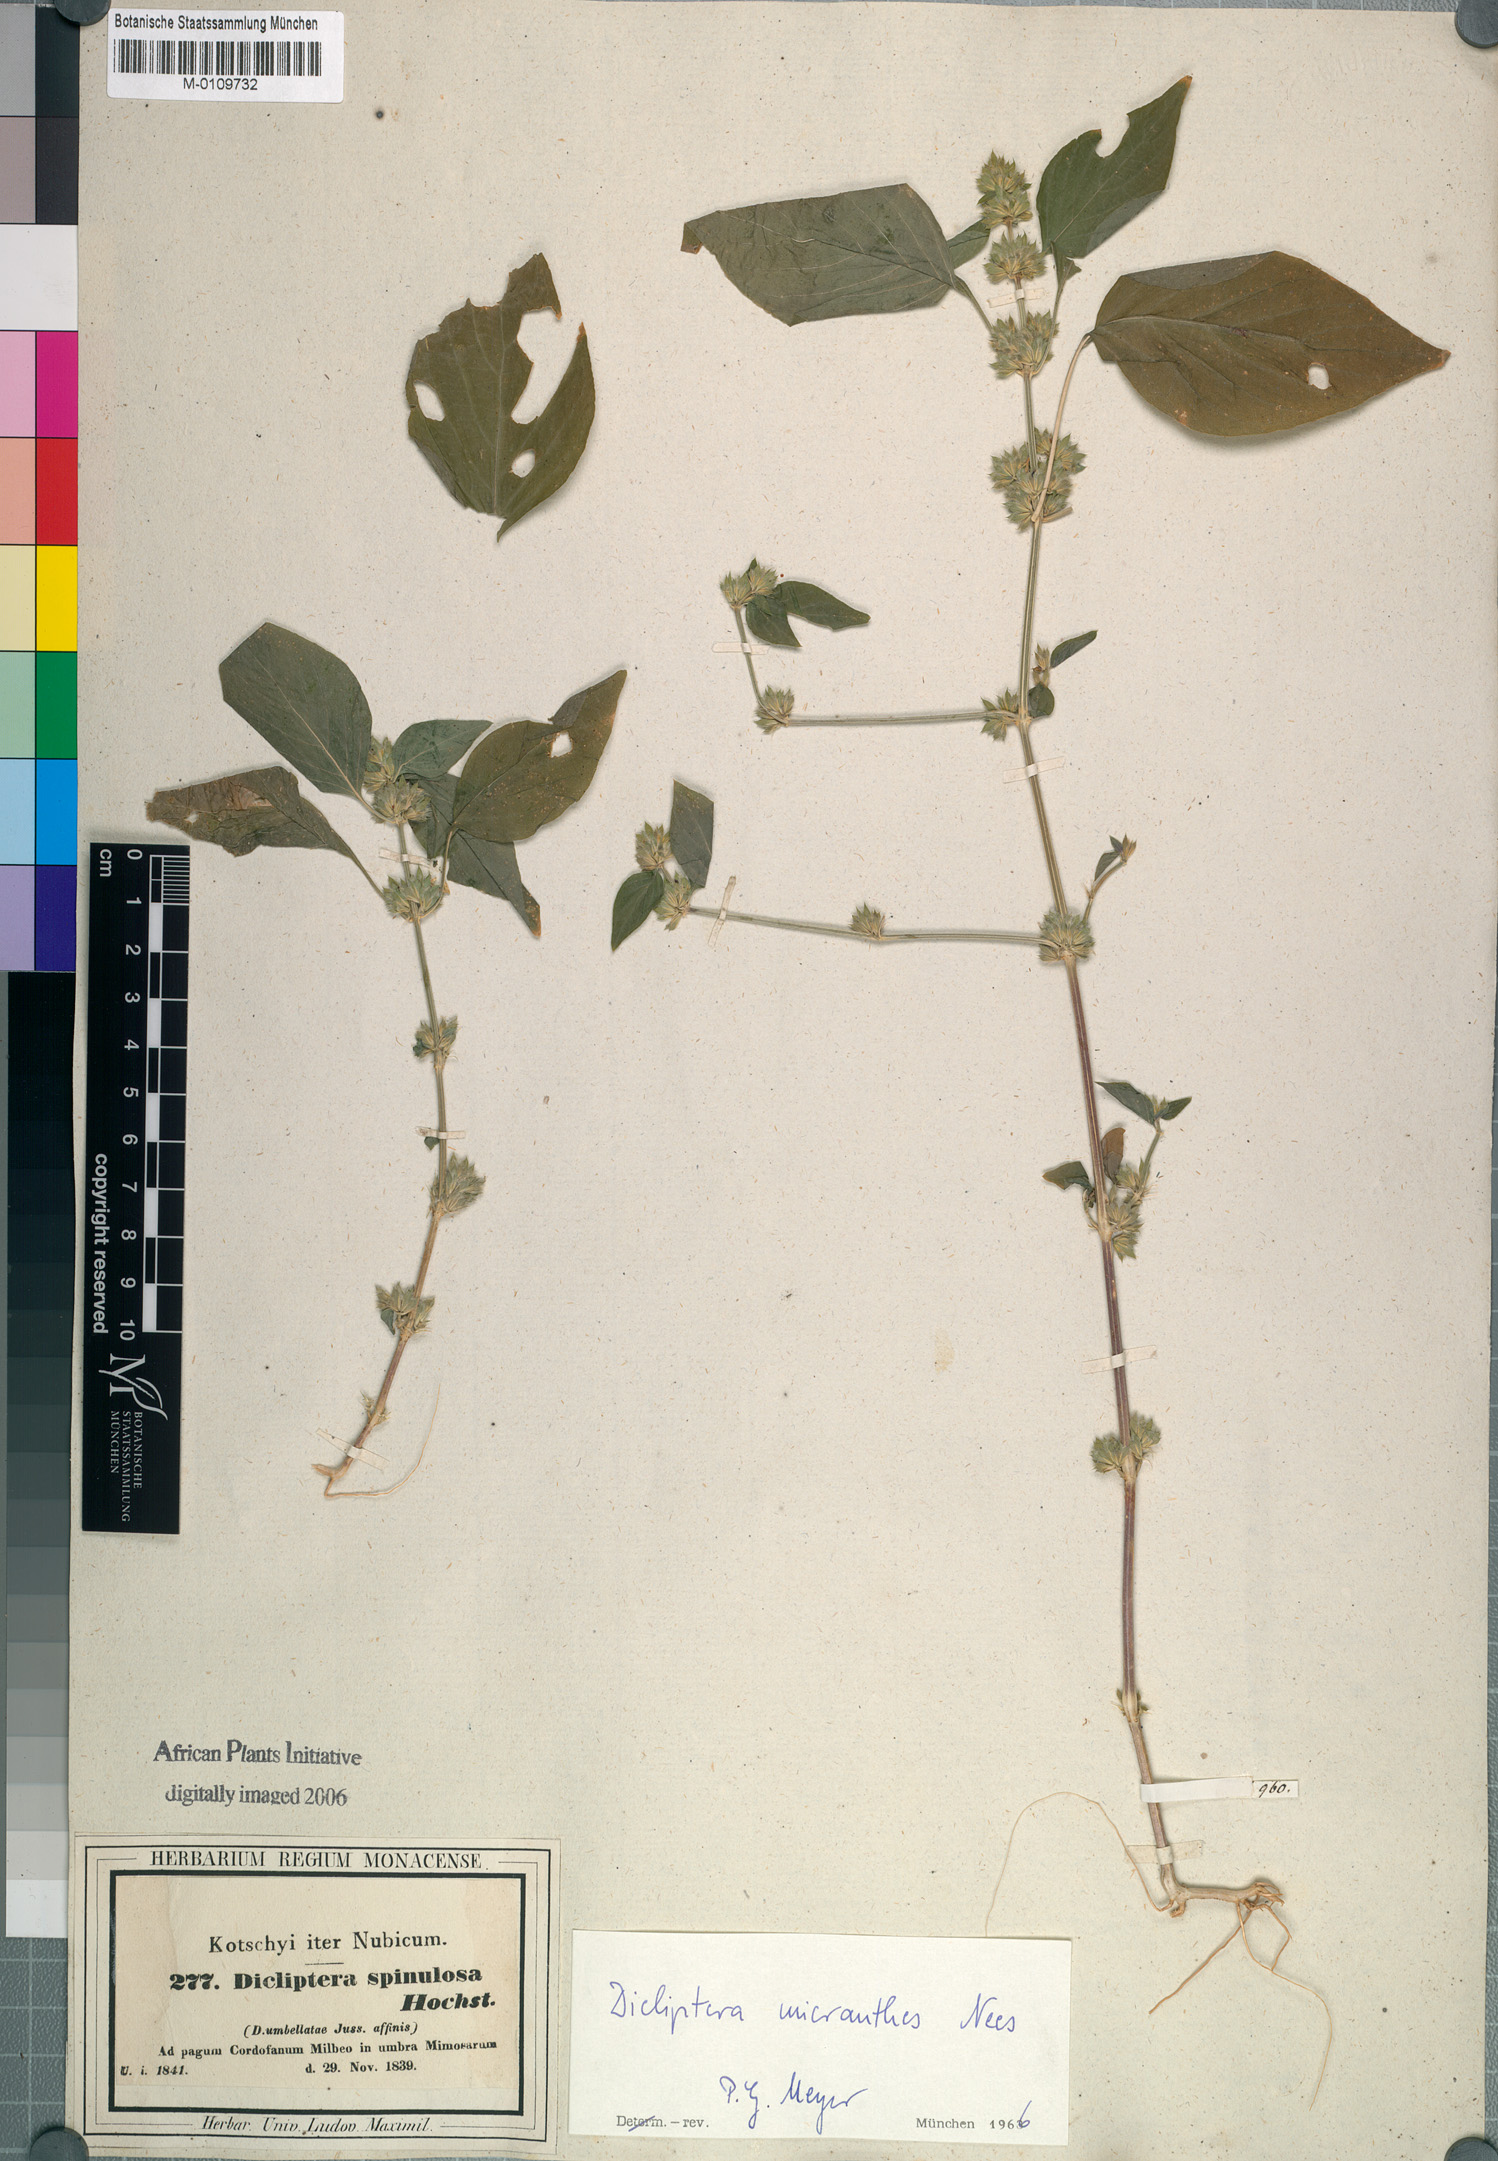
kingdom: Plantae
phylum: Tracheophyta
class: Magnoliopsida
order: Lamiales
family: Acanthaceae
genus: Dicliptera
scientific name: Dicliptera verticillata
